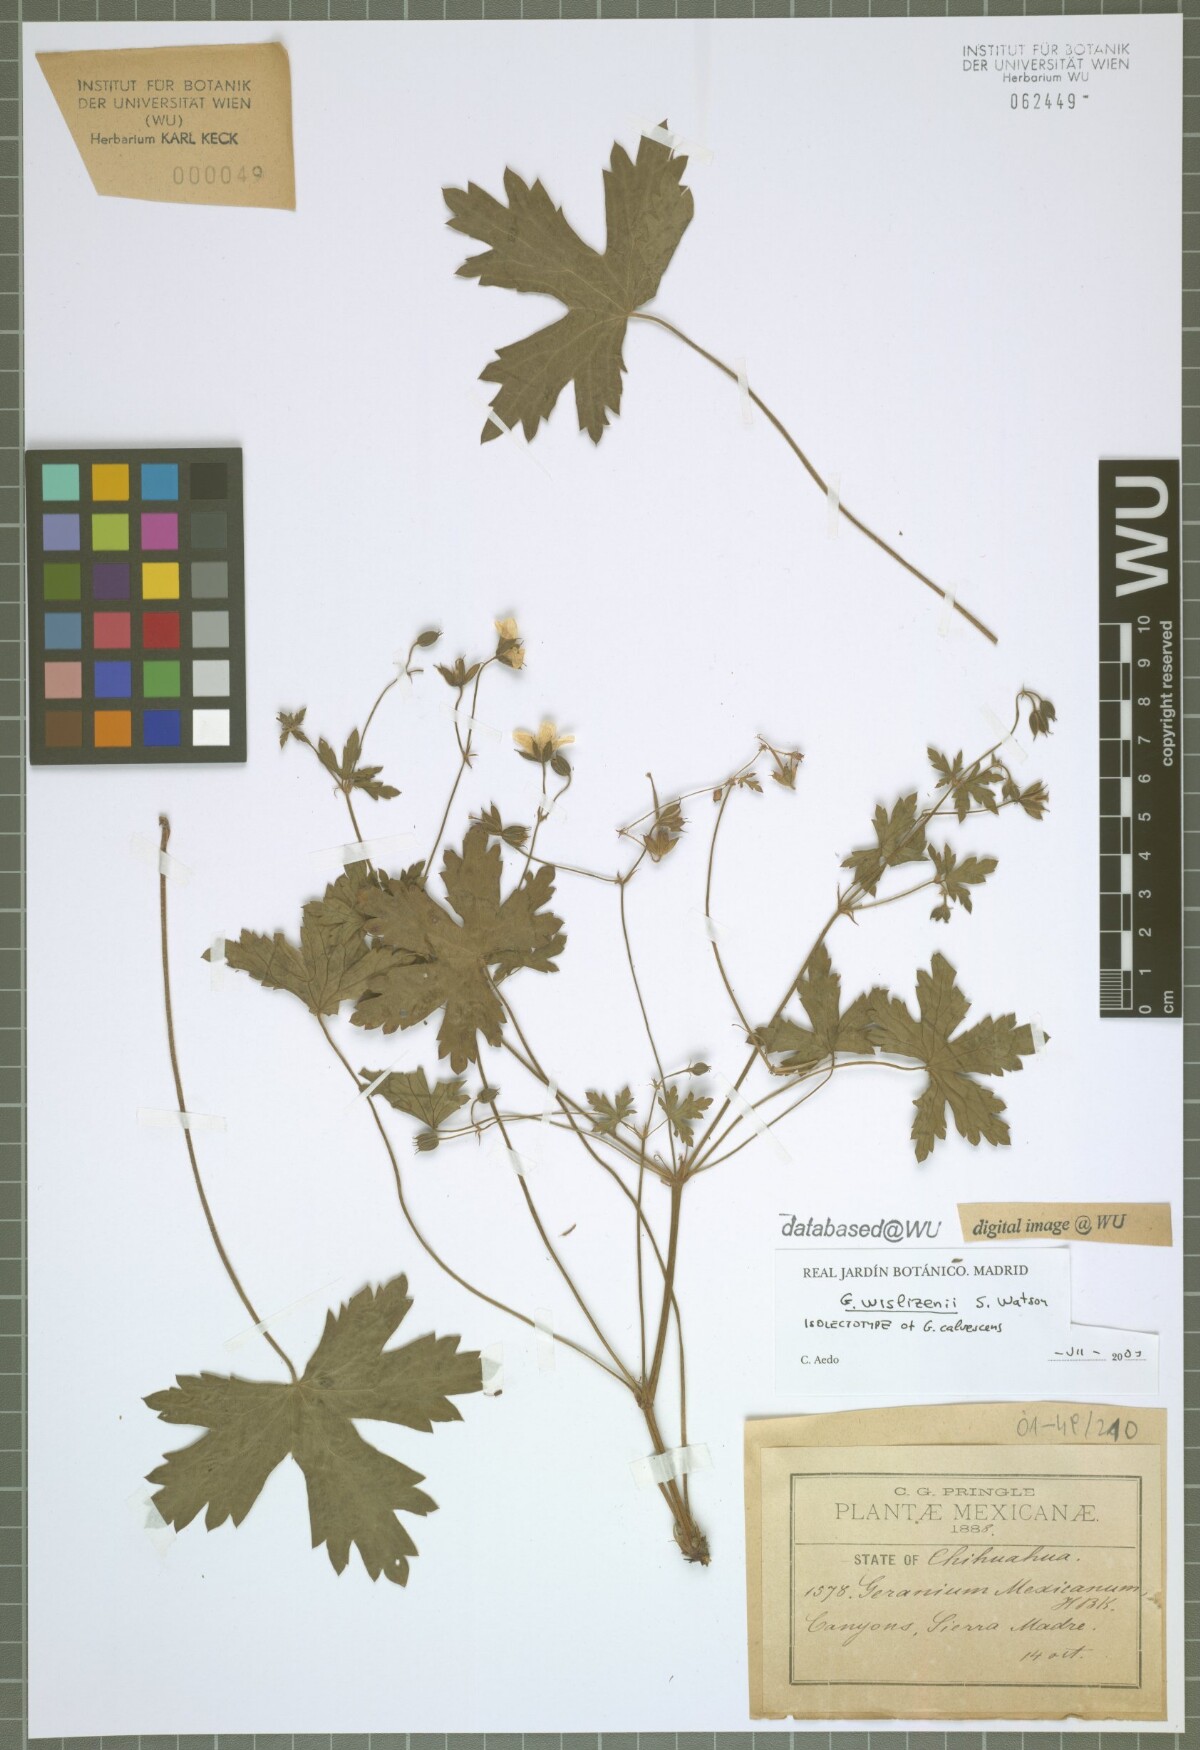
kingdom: Plantae
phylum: Tracheophyta
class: Magnoliopsida
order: Geraniales
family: Geraniaceae
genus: Geranium
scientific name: Geranium wislizeni
